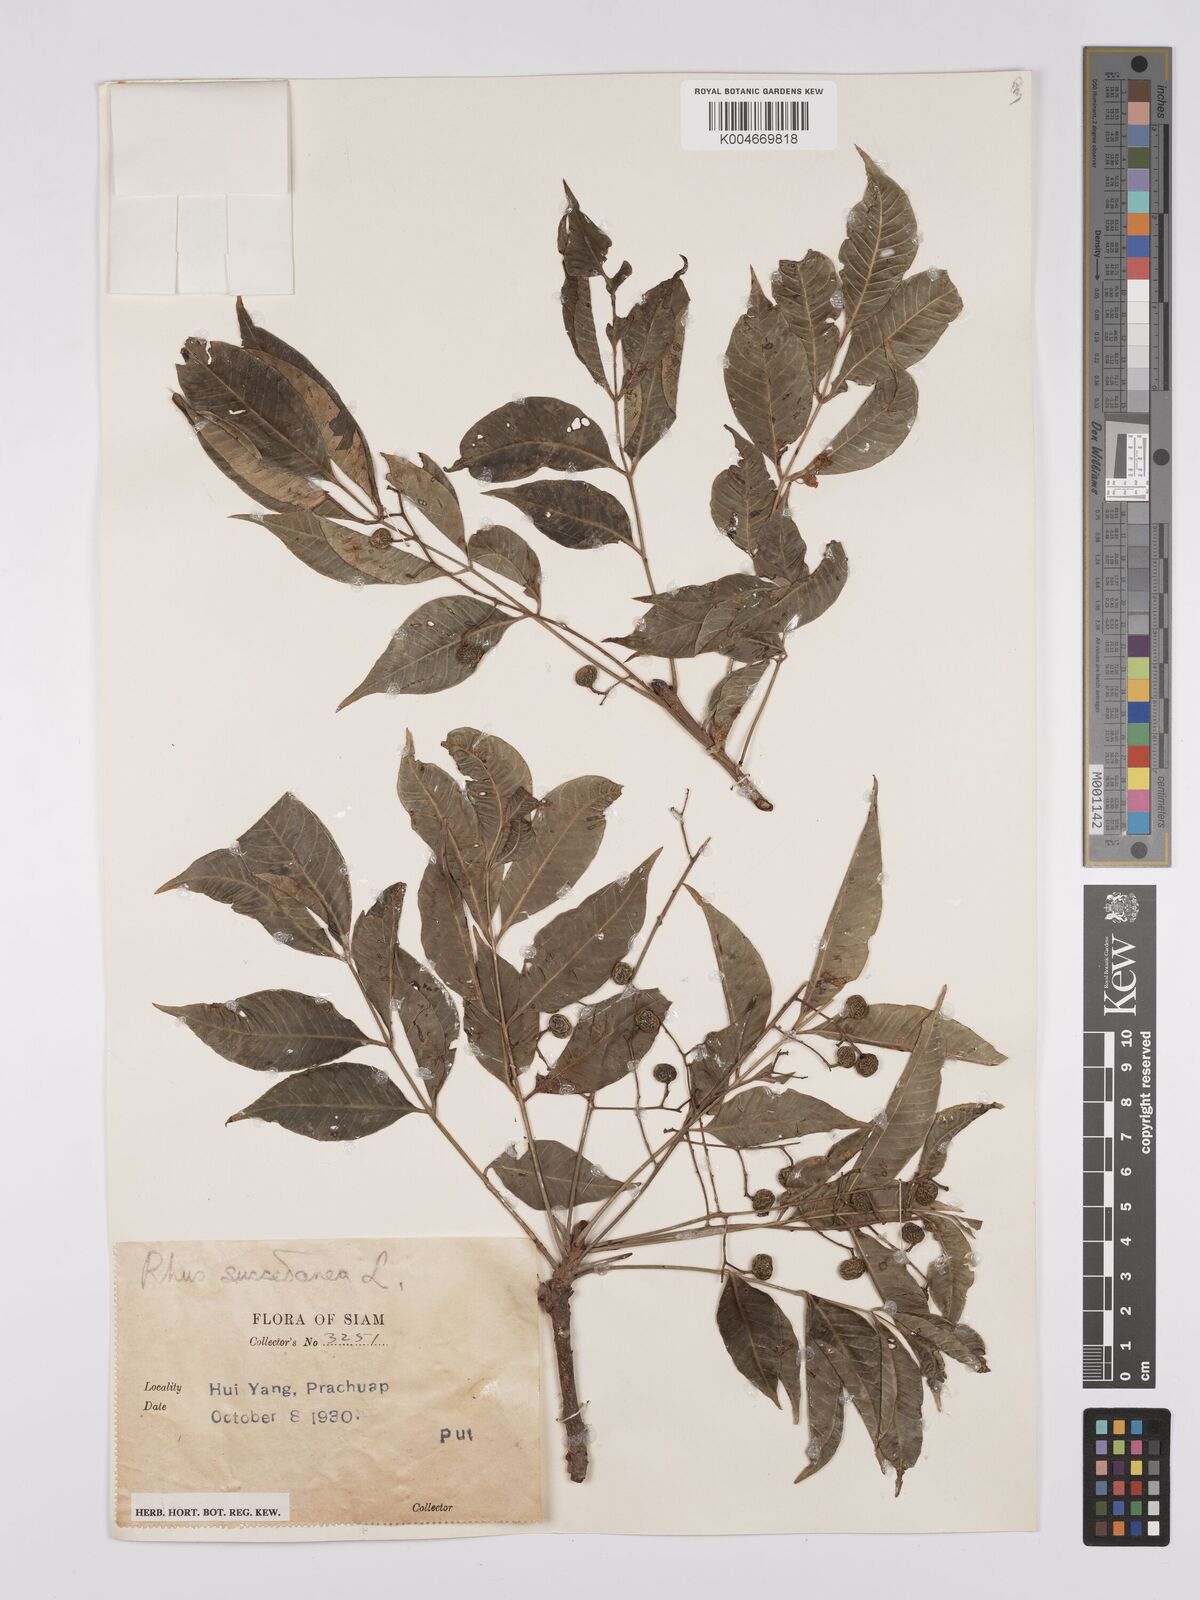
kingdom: Plantae
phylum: Tracheophyta
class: Magnoliopsida
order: Sapindales
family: Anacardiaceae
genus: Toxicodendron
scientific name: Toxicodendron succedaneum
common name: Wax tree
